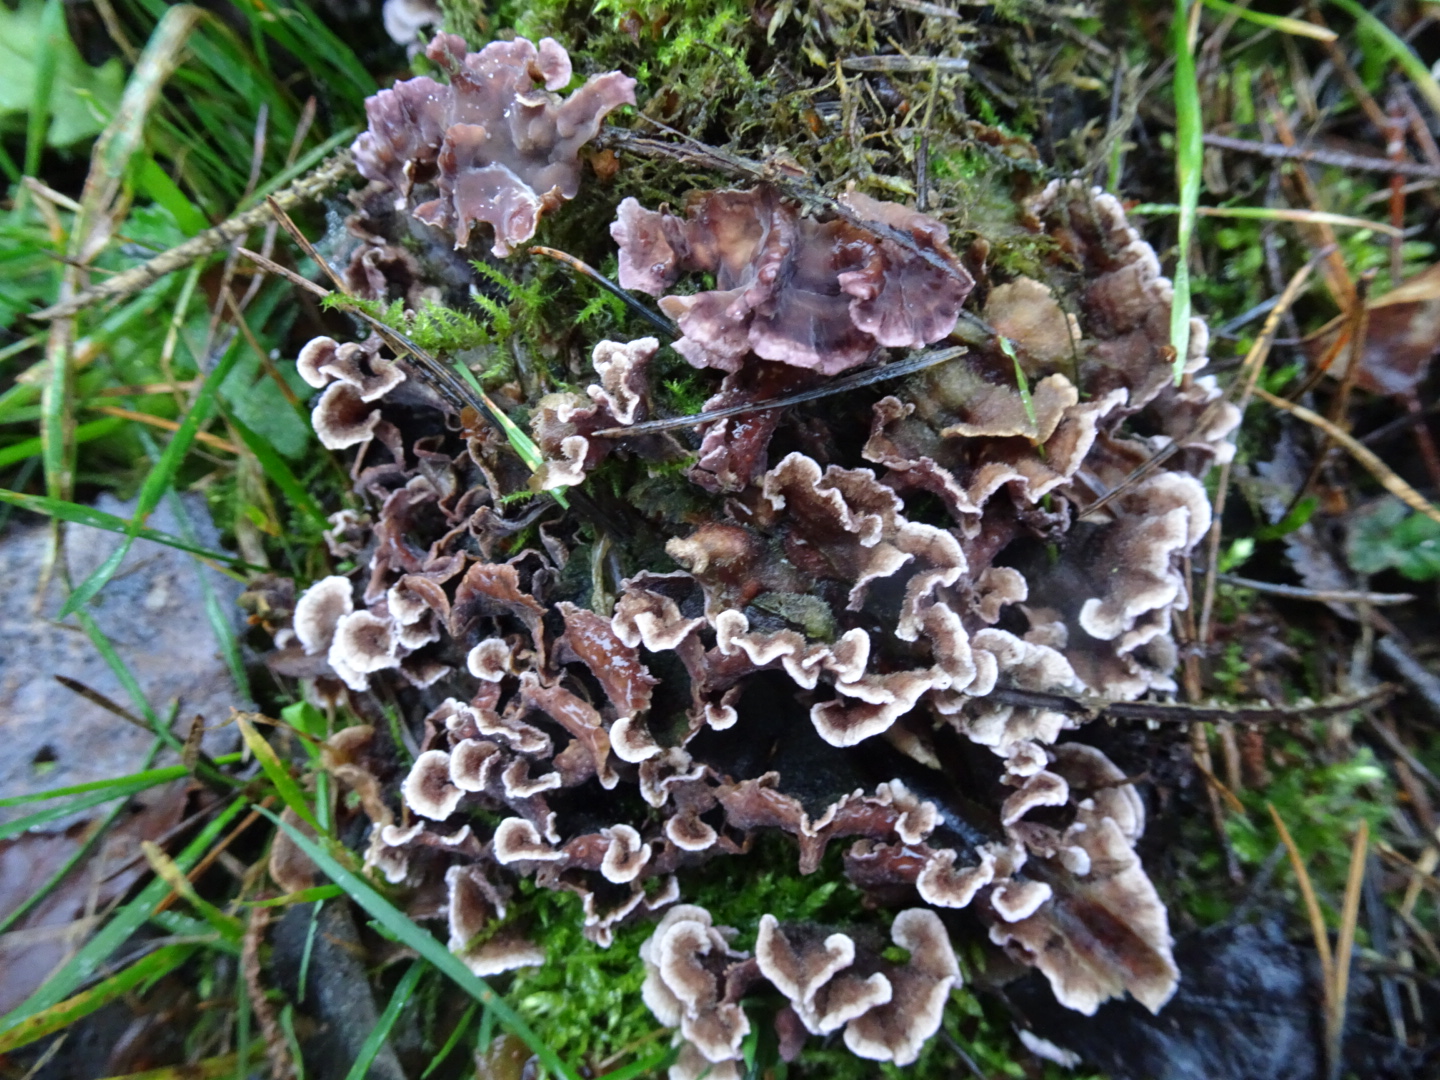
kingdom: Fungi
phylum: Basidiomycota
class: Agaricomycetes
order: Agaricales
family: Cyphellaceae
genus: Chondrostereum
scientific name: Chondrostereum purpureum
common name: purpurlædersvamp
